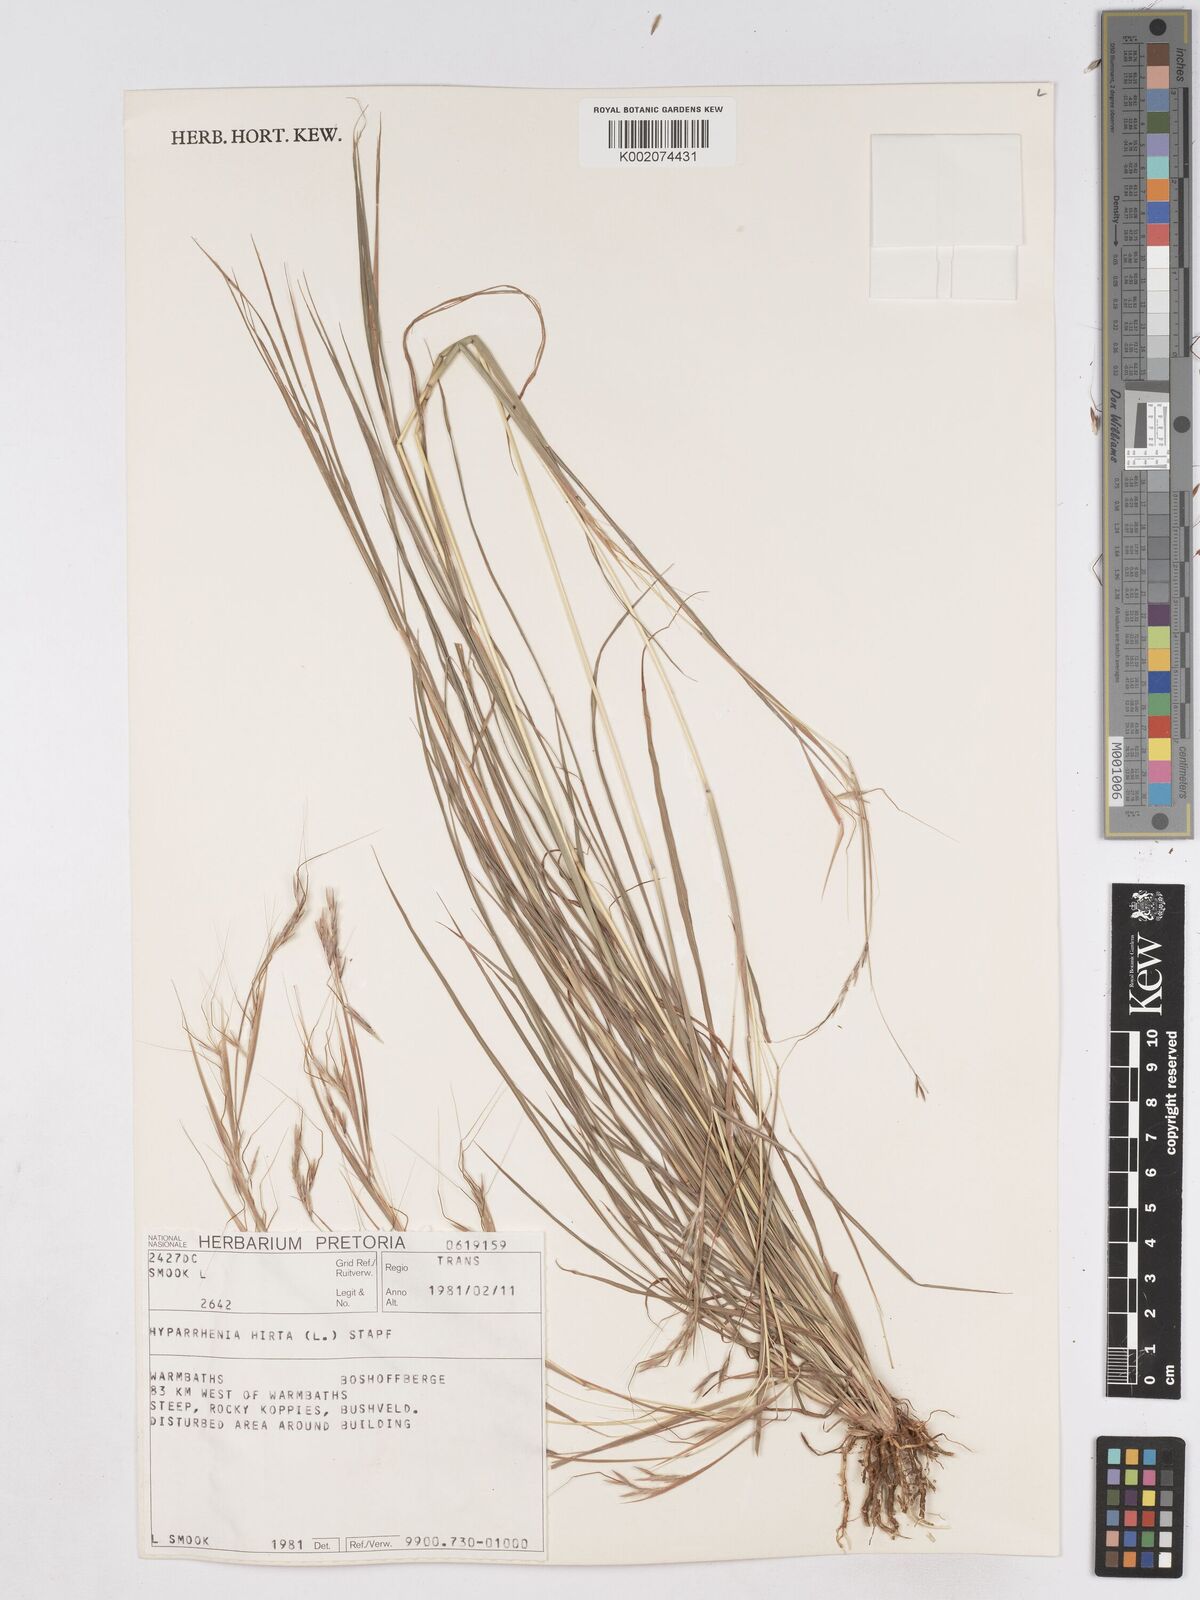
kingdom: Plantae
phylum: Tracheophyta
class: Liliopsida
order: Poales
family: Poaceae
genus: Hyparrhenia
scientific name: Hyparrhenia hirta
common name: Thatching grass
